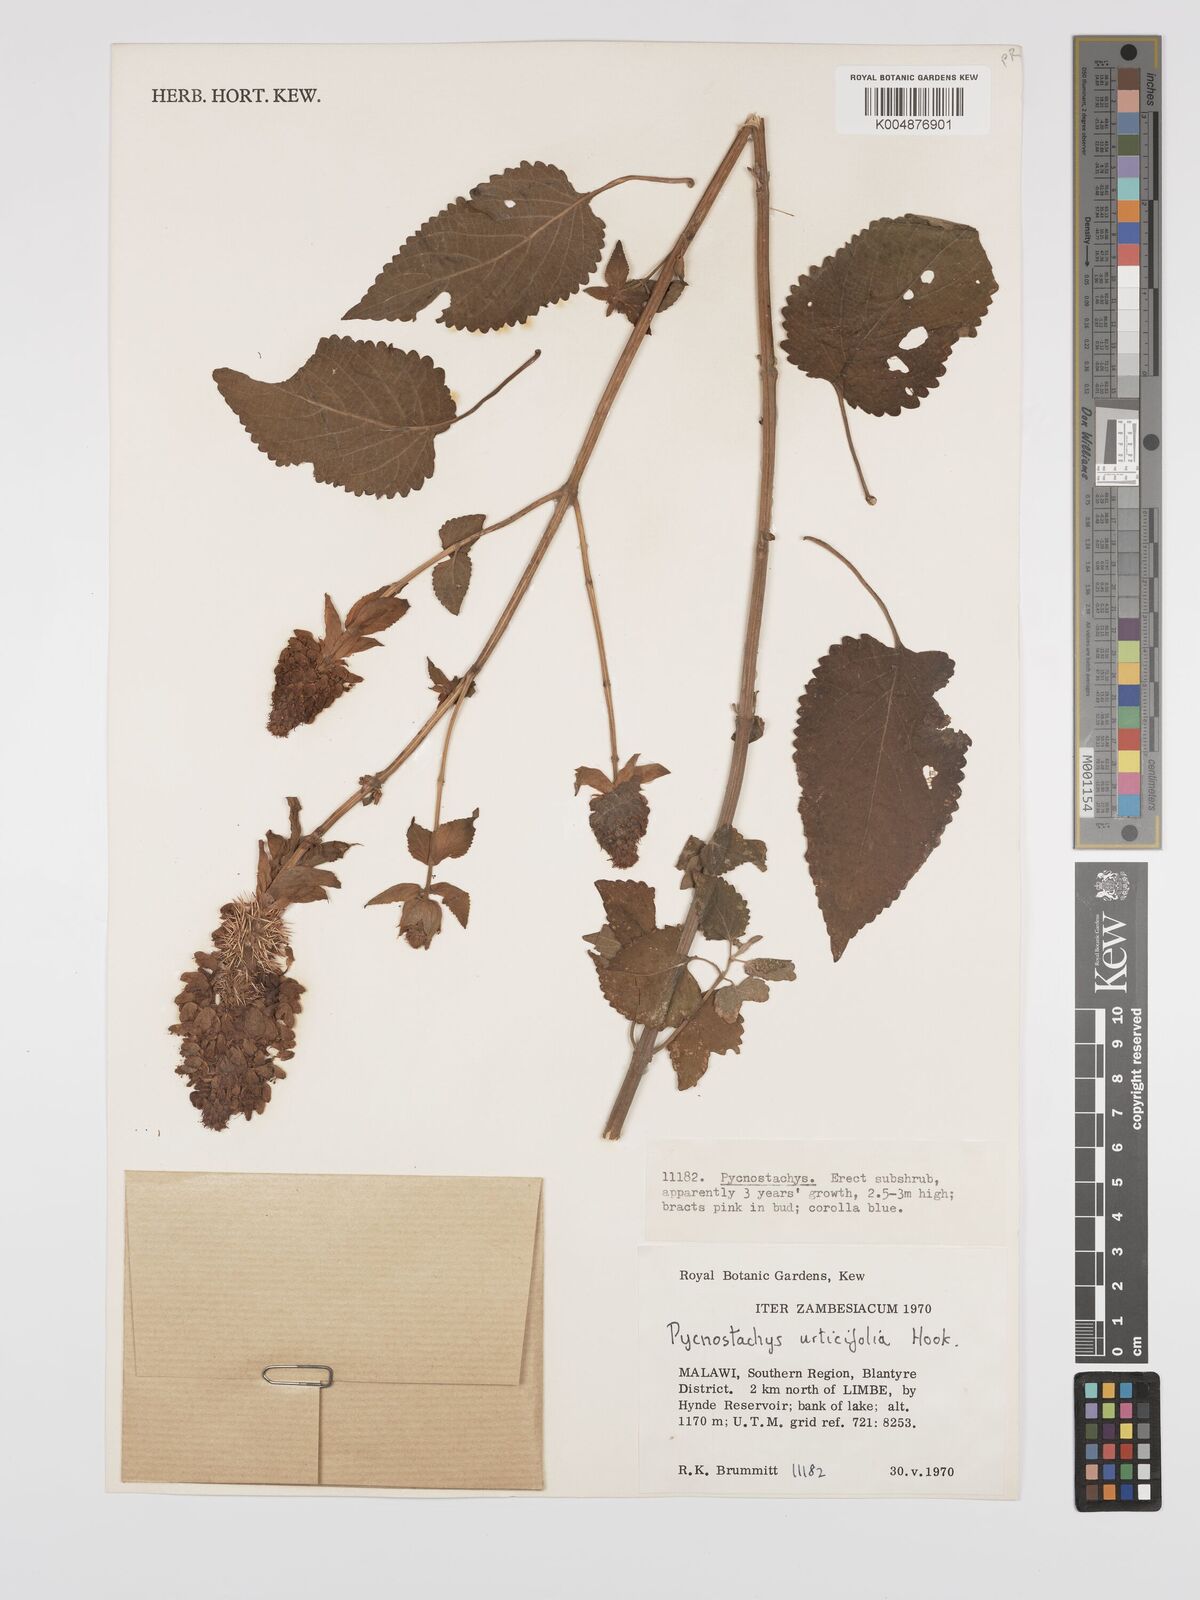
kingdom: Plantae
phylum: Tracheophyta
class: Magnoliopsida
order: Lamiales
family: Lamiaceae
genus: Coleus
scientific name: Coleus livingstonei
